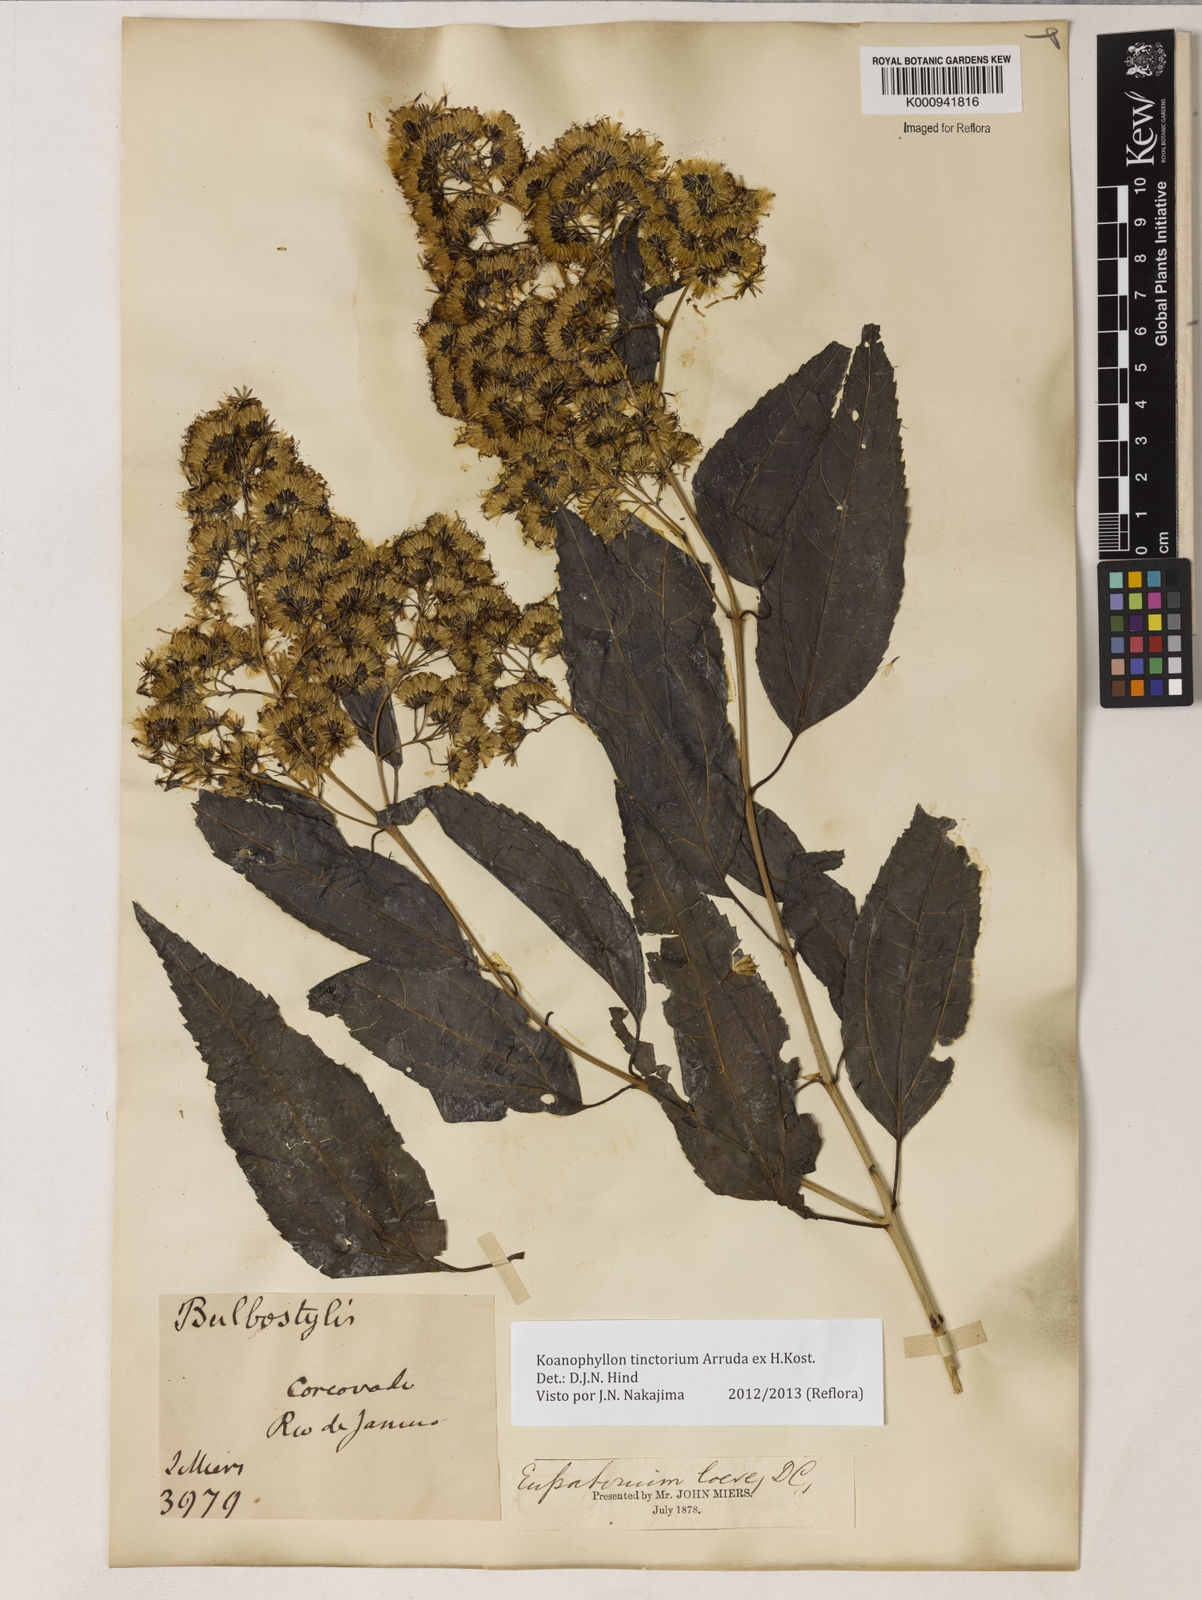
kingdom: Plantae
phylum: Tracheophyta
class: Magnoliopsida
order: Asterales
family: Asteraceae
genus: Koanophyllon
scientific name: Koanophyllon
